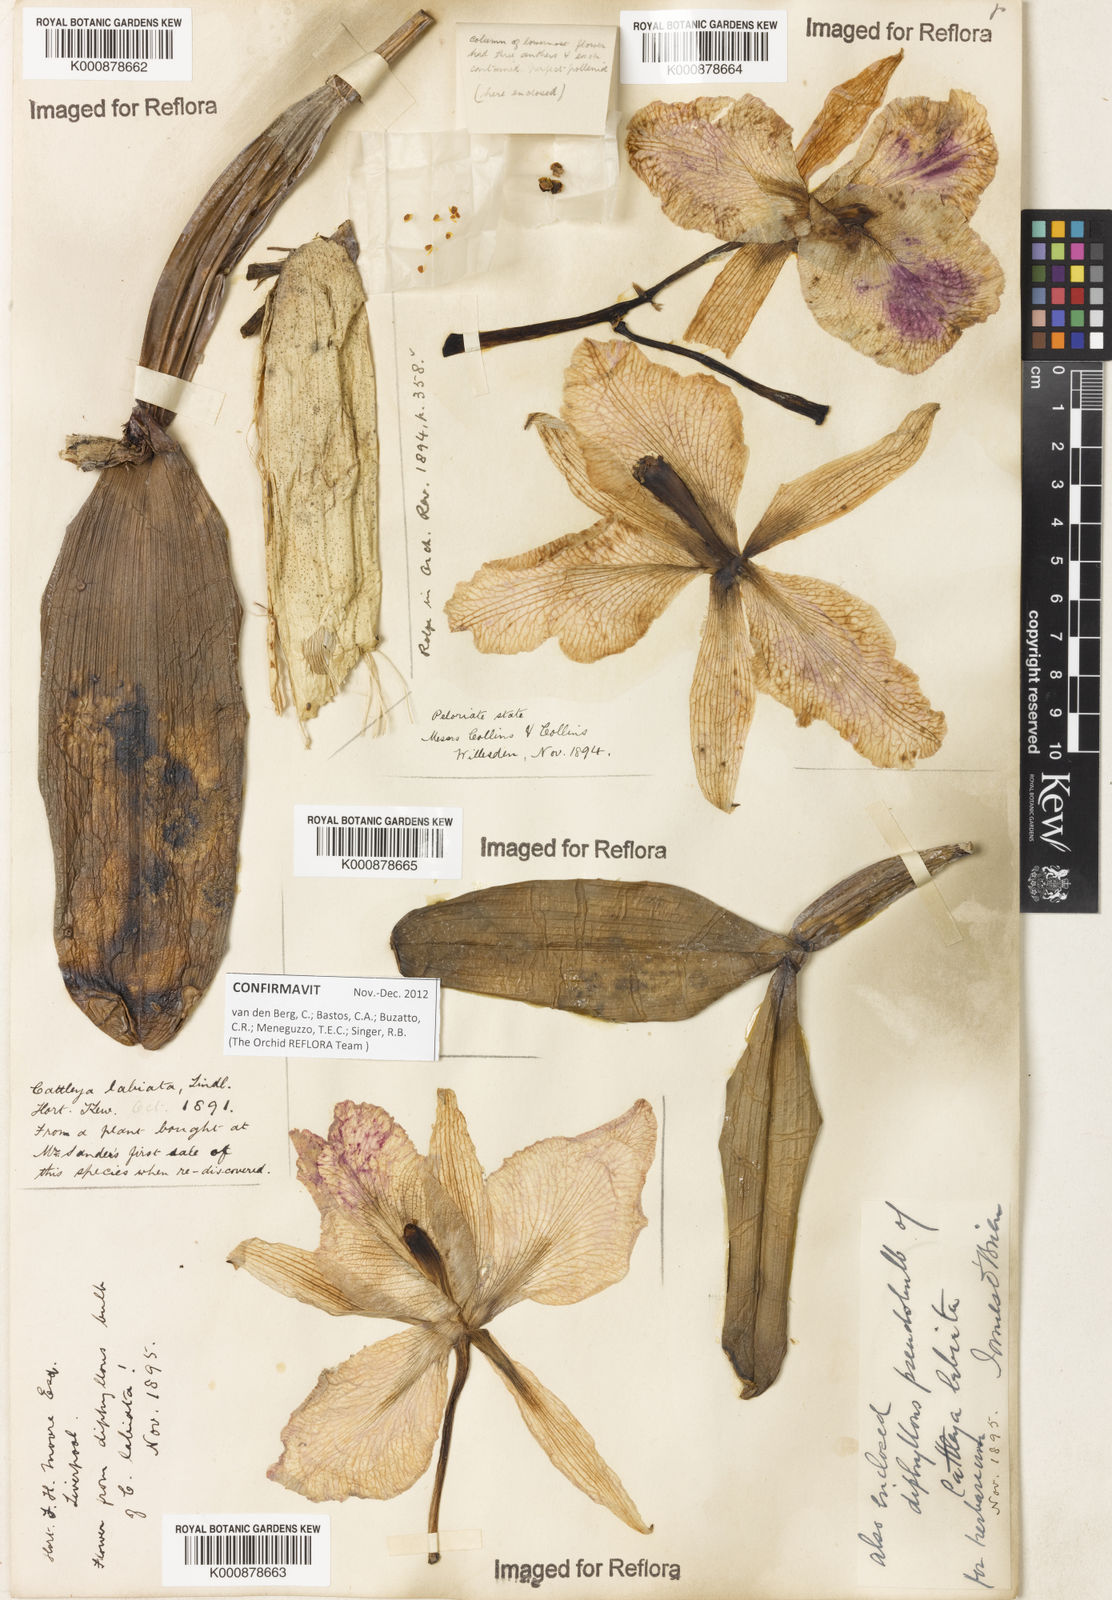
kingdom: Plantae
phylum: Tracheophyta
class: Liliopsida
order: Asparagales
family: Orchidaceae
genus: Cattleya
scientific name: Cattleya labiata
